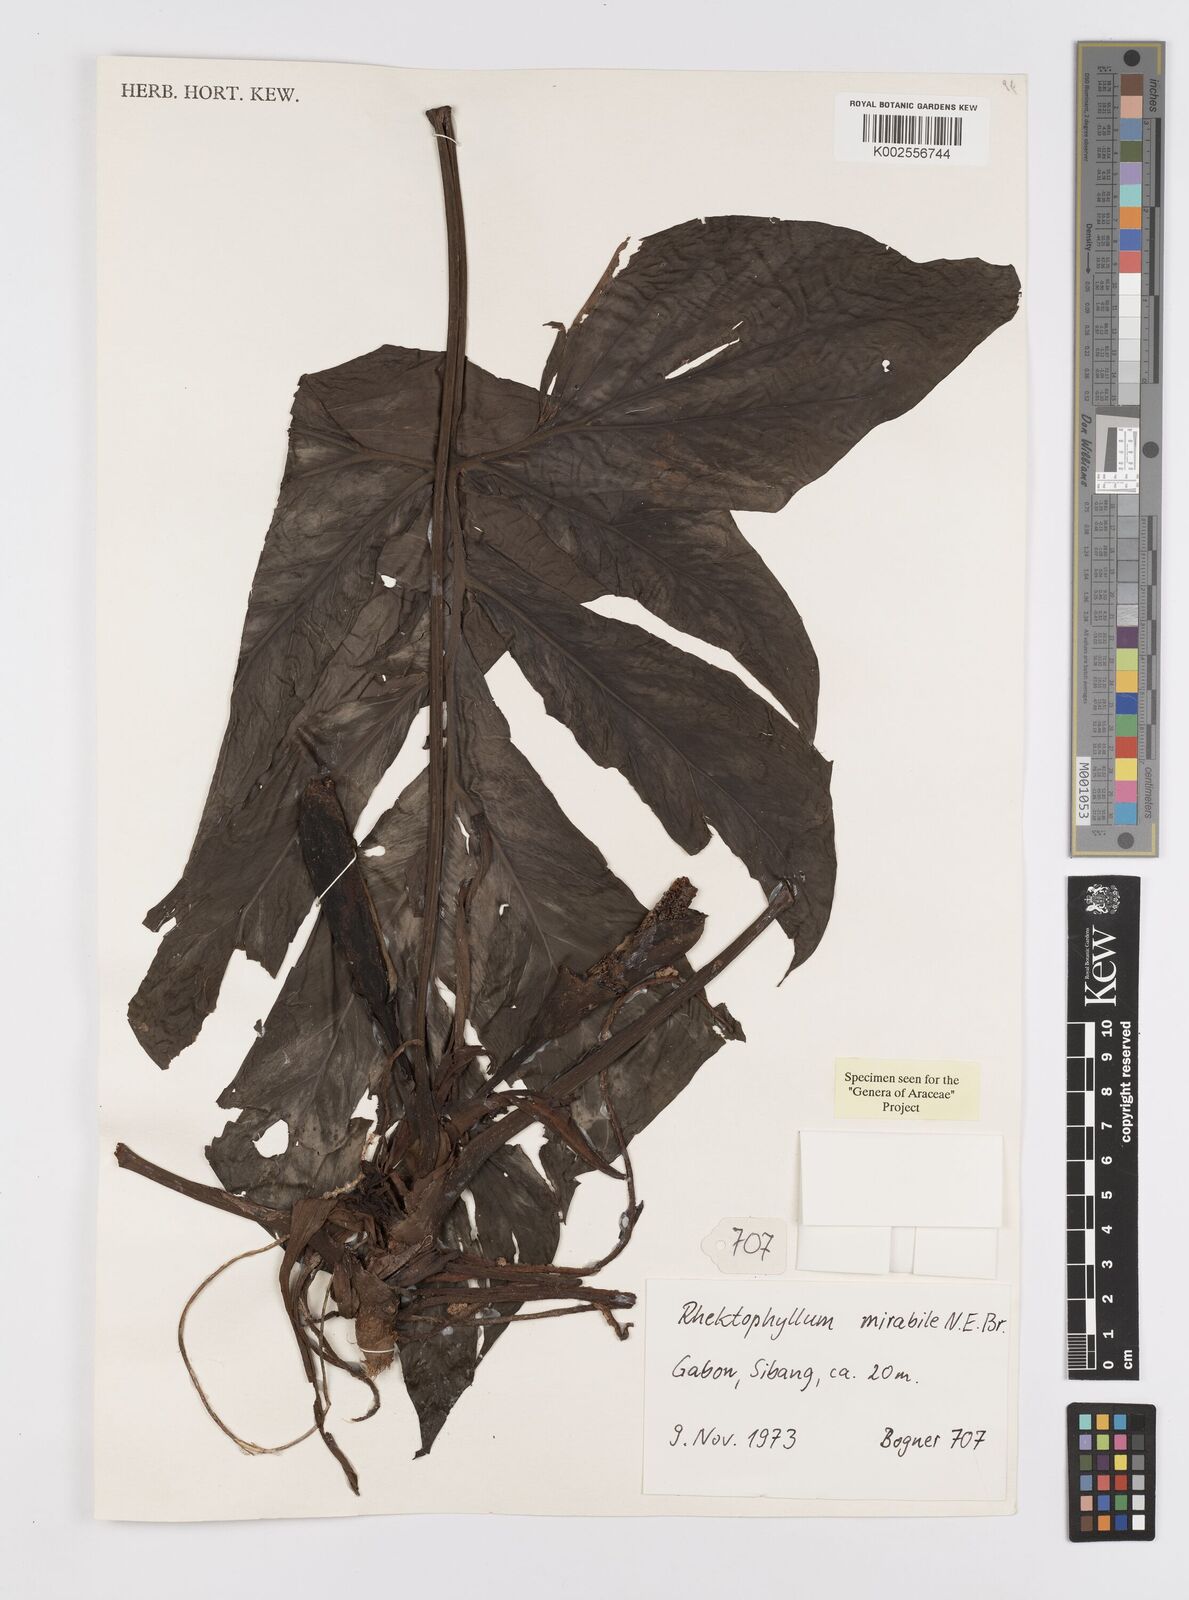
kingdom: Plantae
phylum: Tracheophyta
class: Liliopsida
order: Alismatales
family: Araceae
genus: Cercestis
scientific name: Cercestis mirabilis
